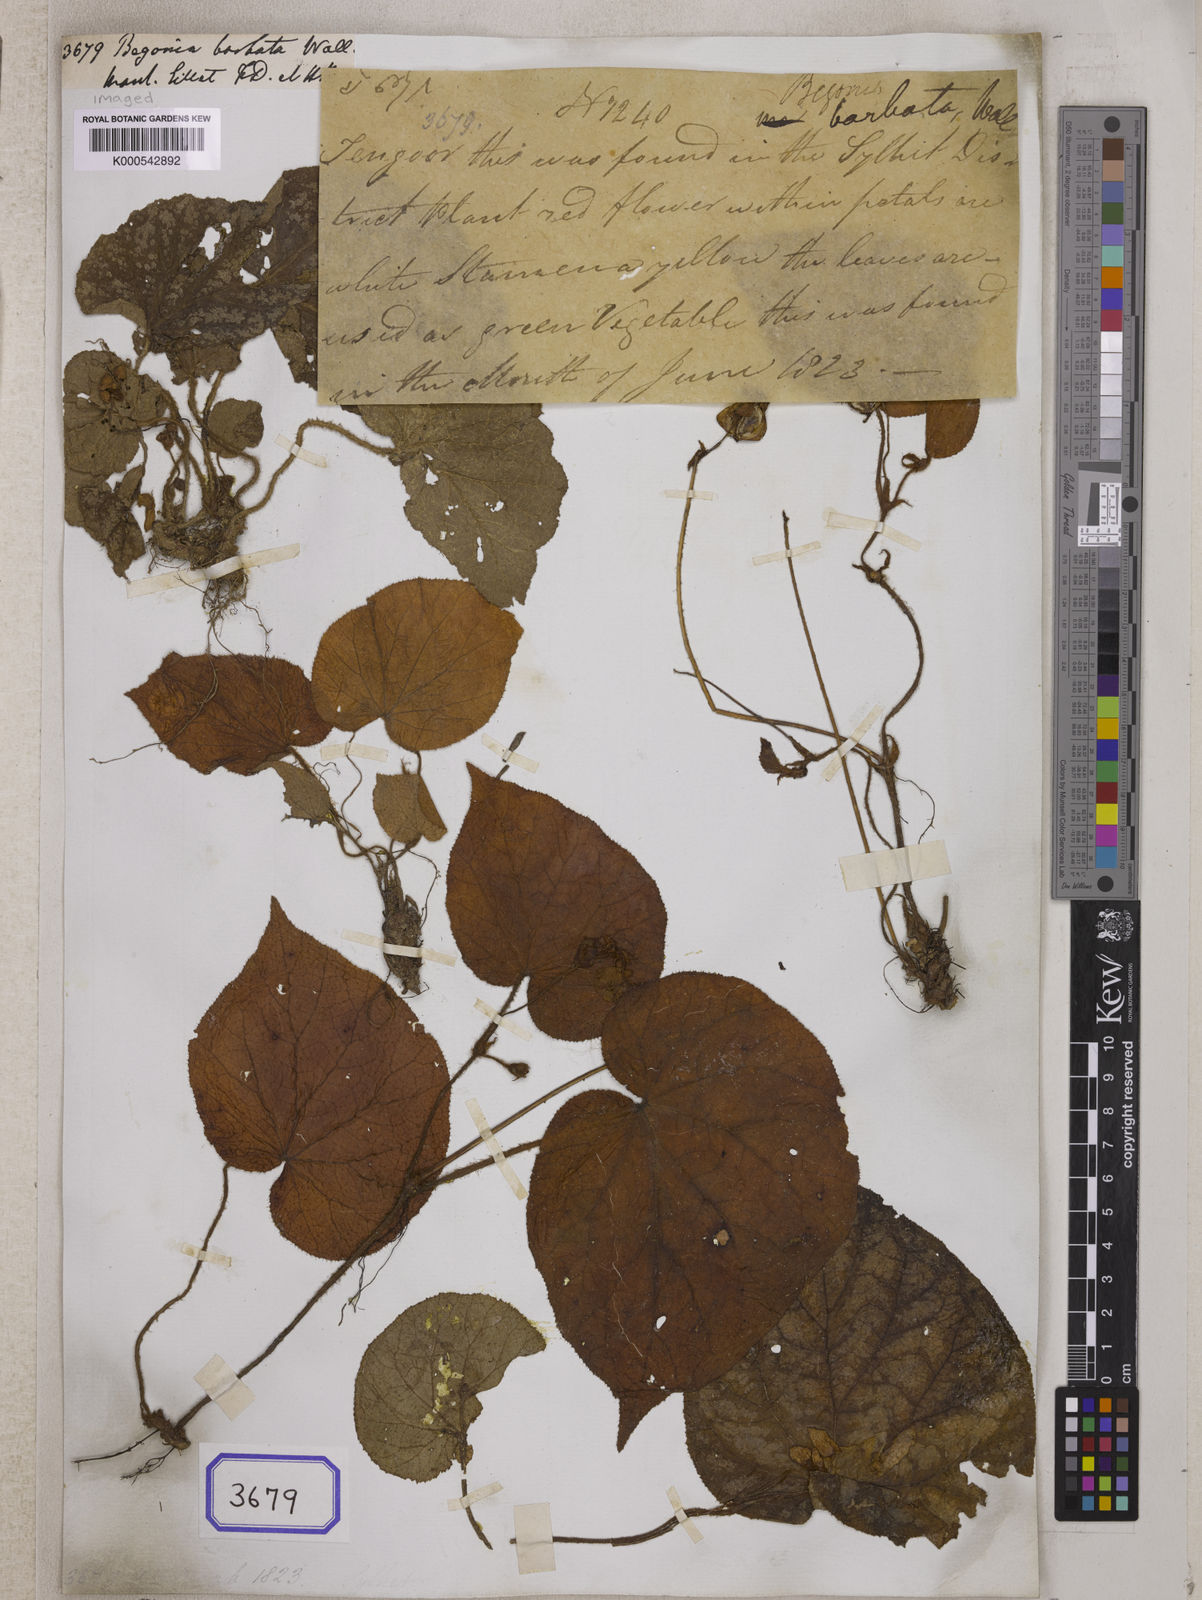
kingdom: Plantae
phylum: Tracheophyta
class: Magnoliopsida
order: Cucurbitales
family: Begoniaceae
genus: Begonia
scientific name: Begonia
